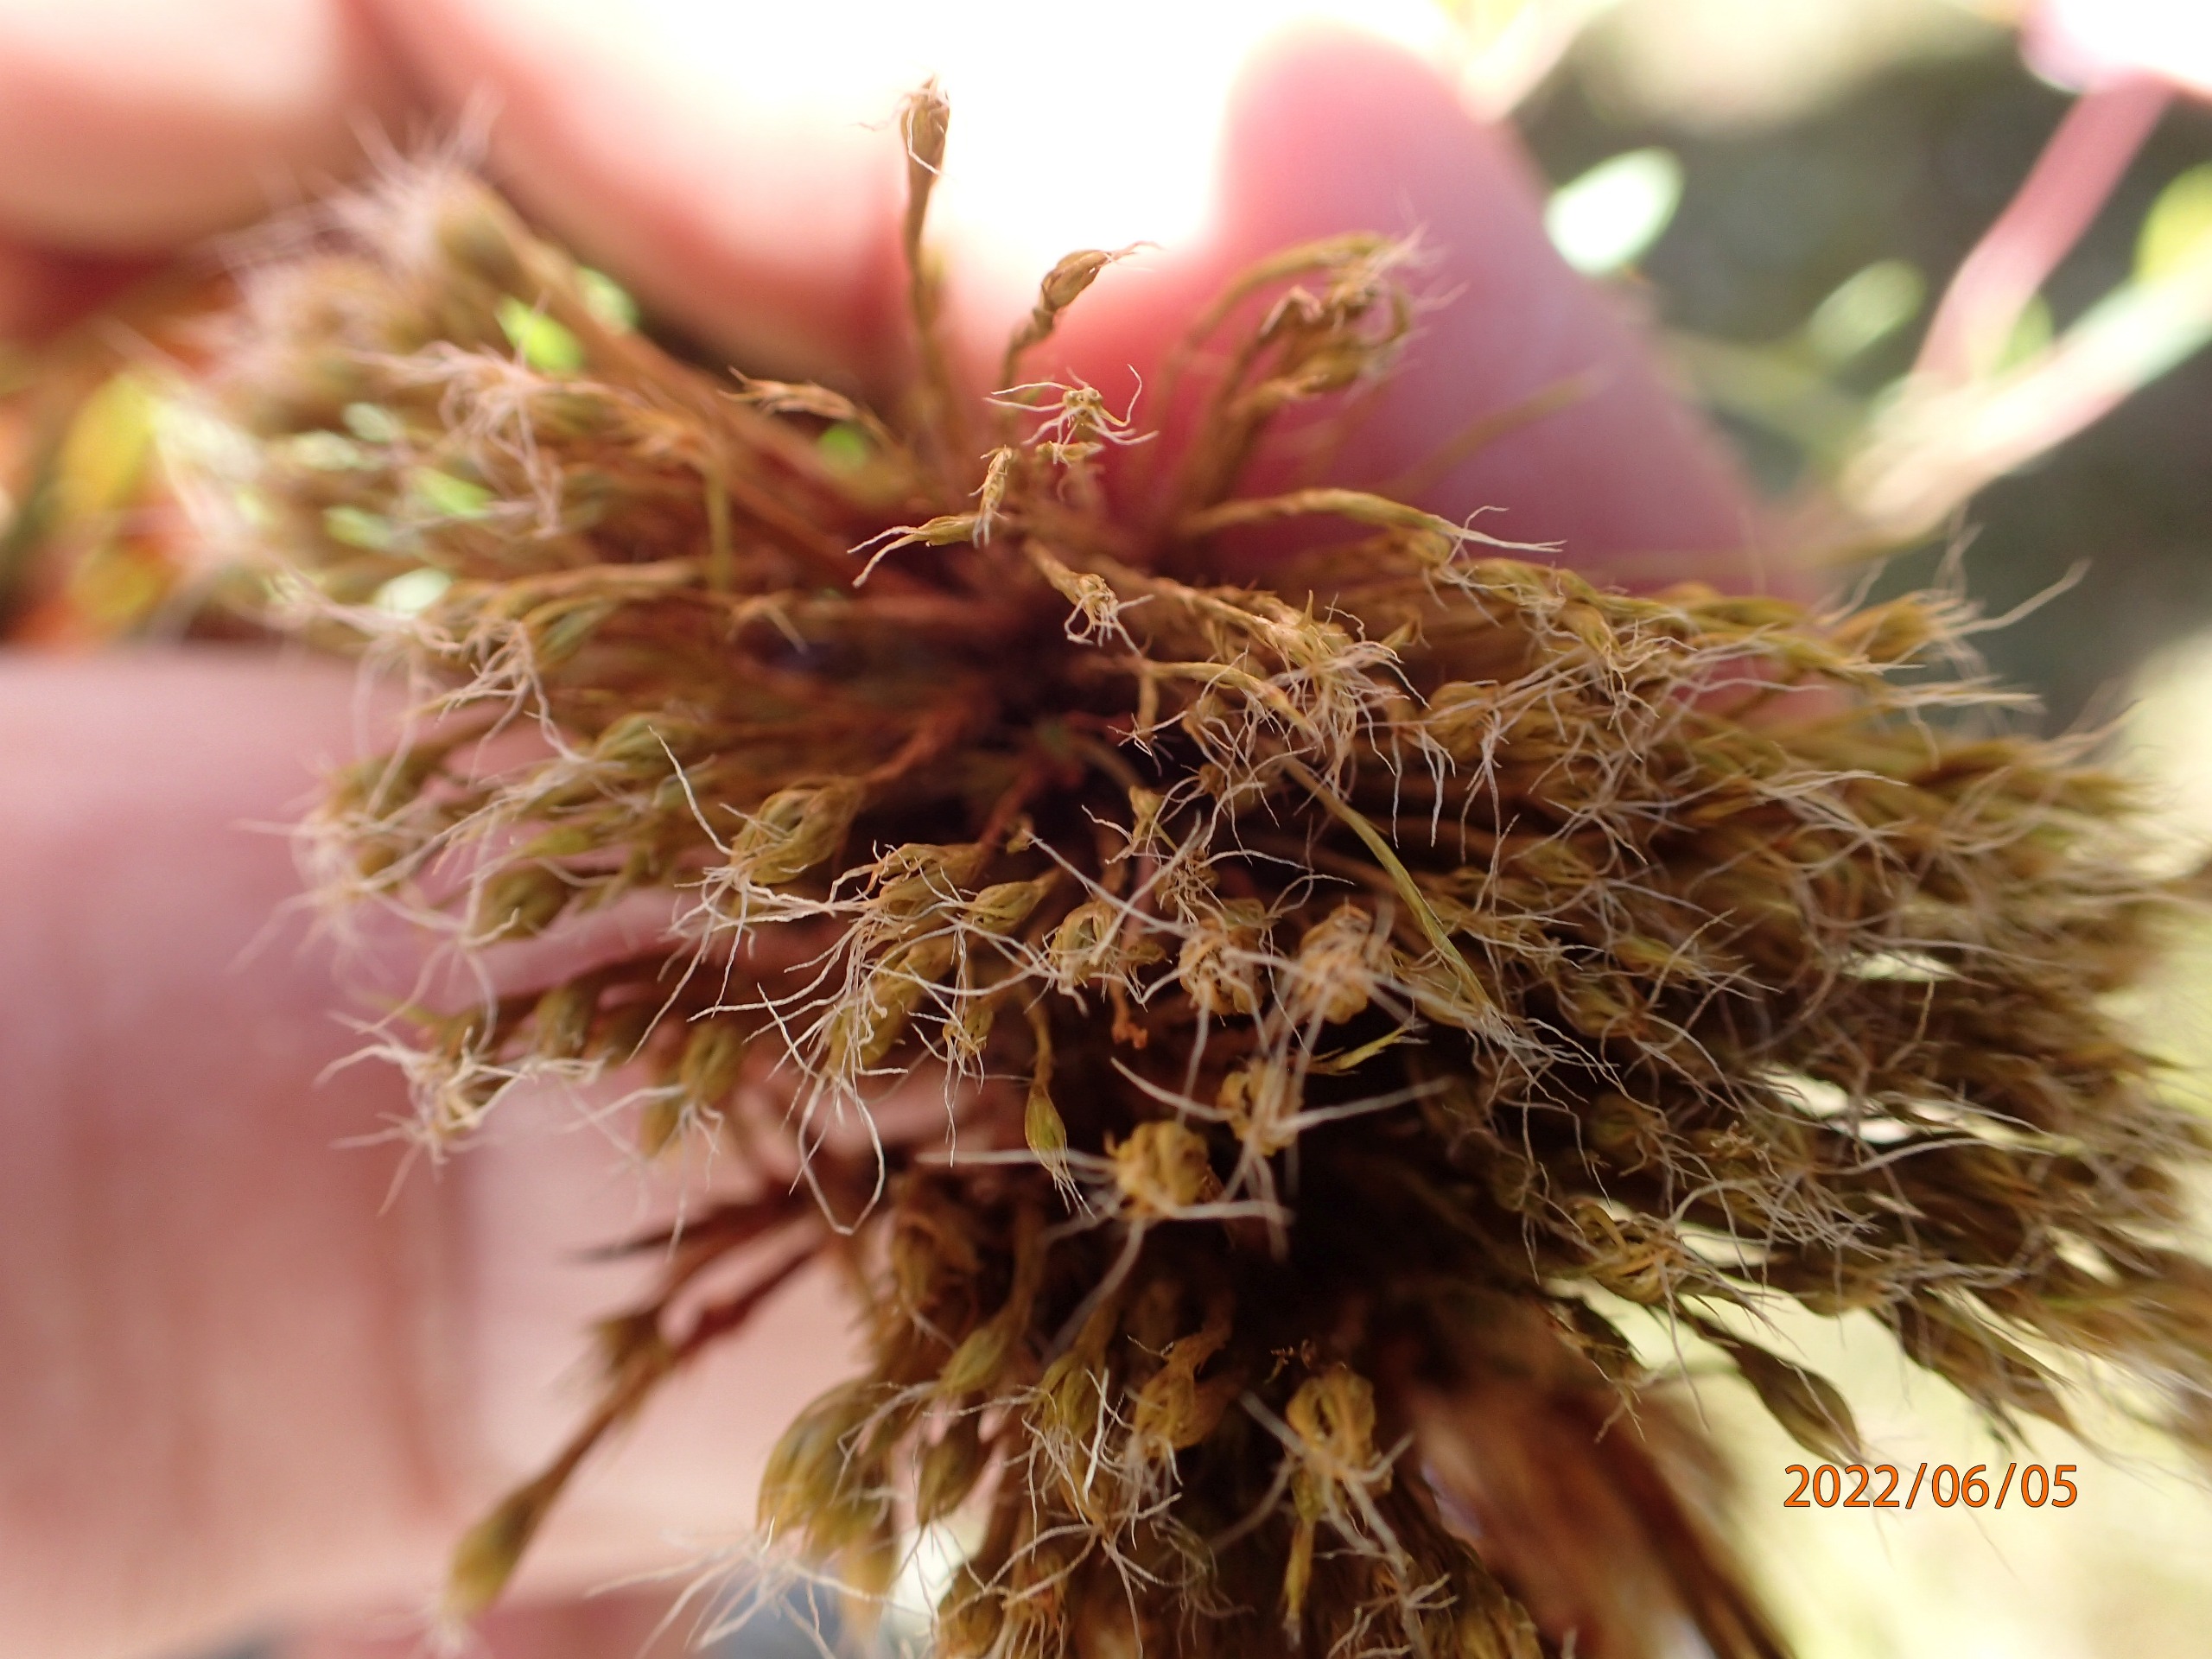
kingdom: Plantae
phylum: Bryophyta
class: Bryopsida
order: Dicranales
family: Leucobryaceae
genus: Campylopus
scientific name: Campylopus introflexus
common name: Stjerne-bredribbe
